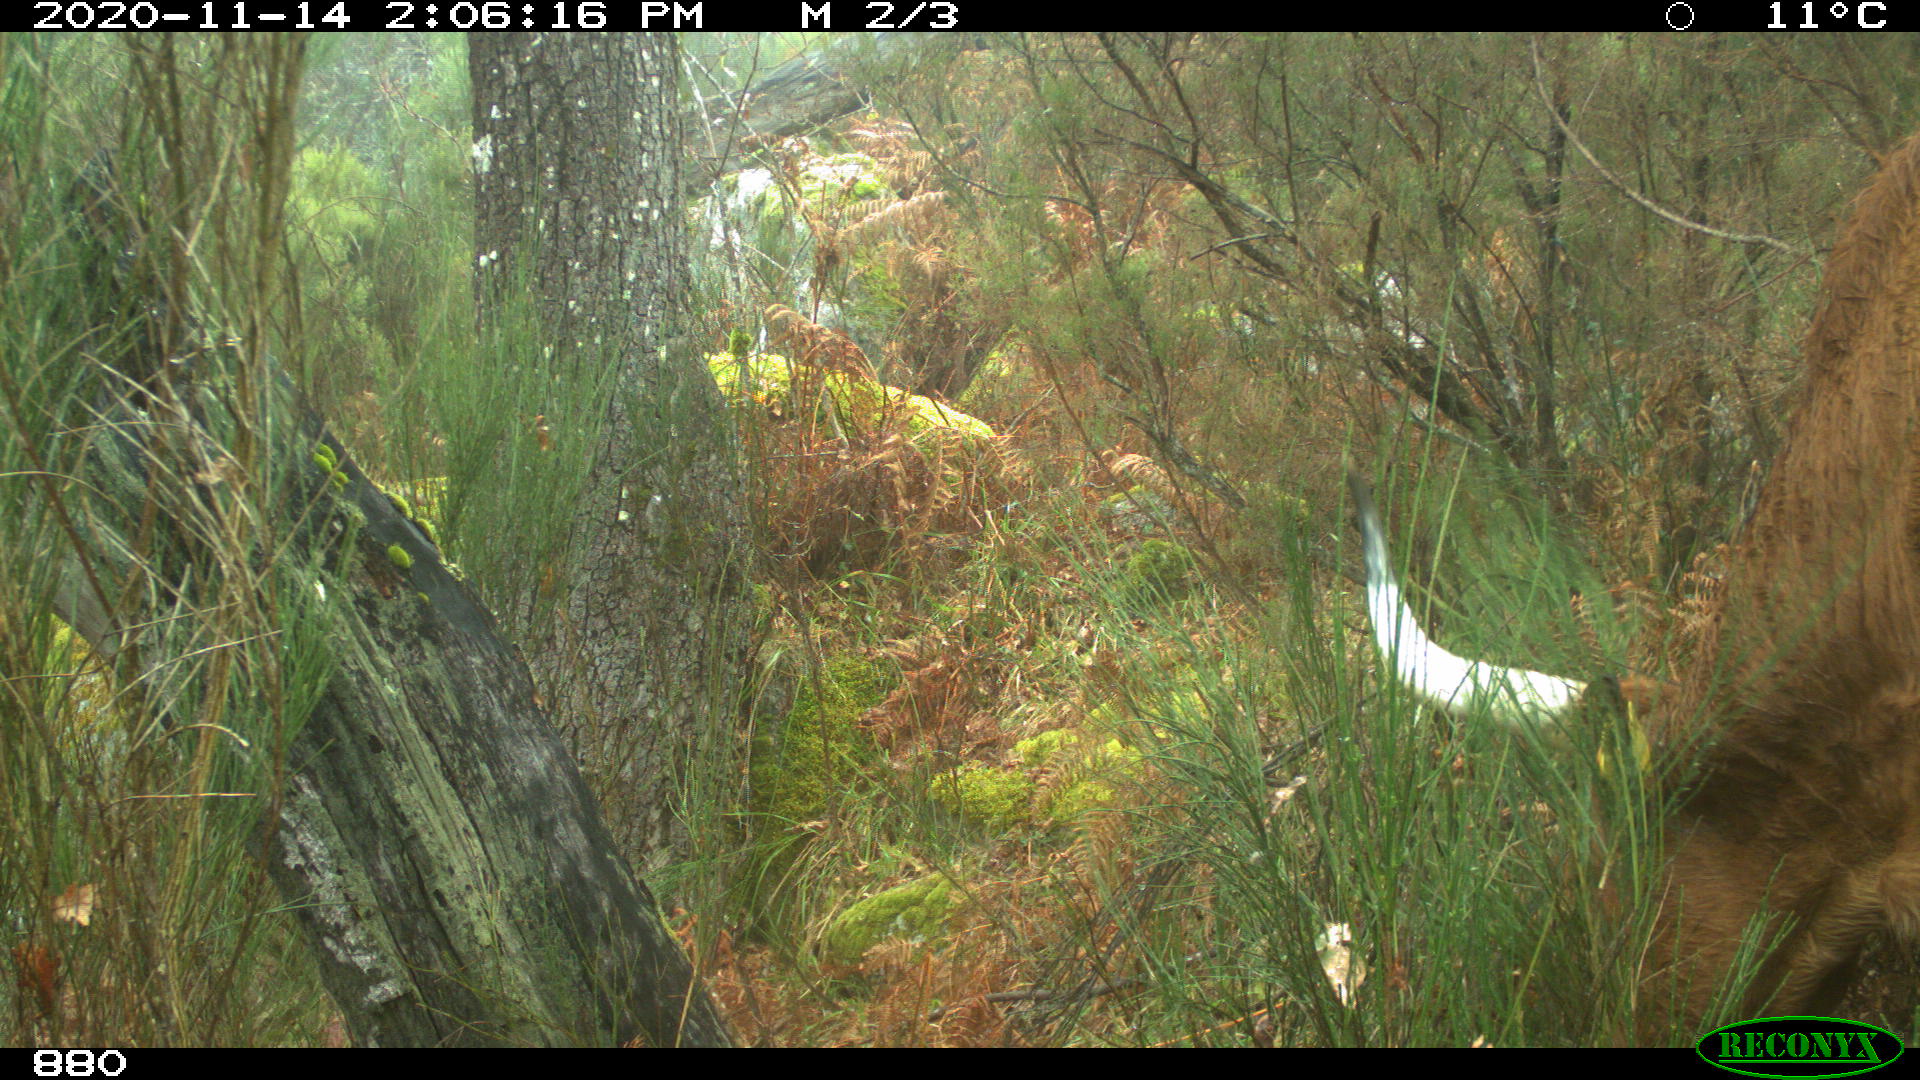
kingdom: Animalia
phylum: Chordata
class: Mammalia
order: Artiodactyla
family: Bovidae
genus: Bos
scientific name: Bos taurus
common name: Domesticated cattle
